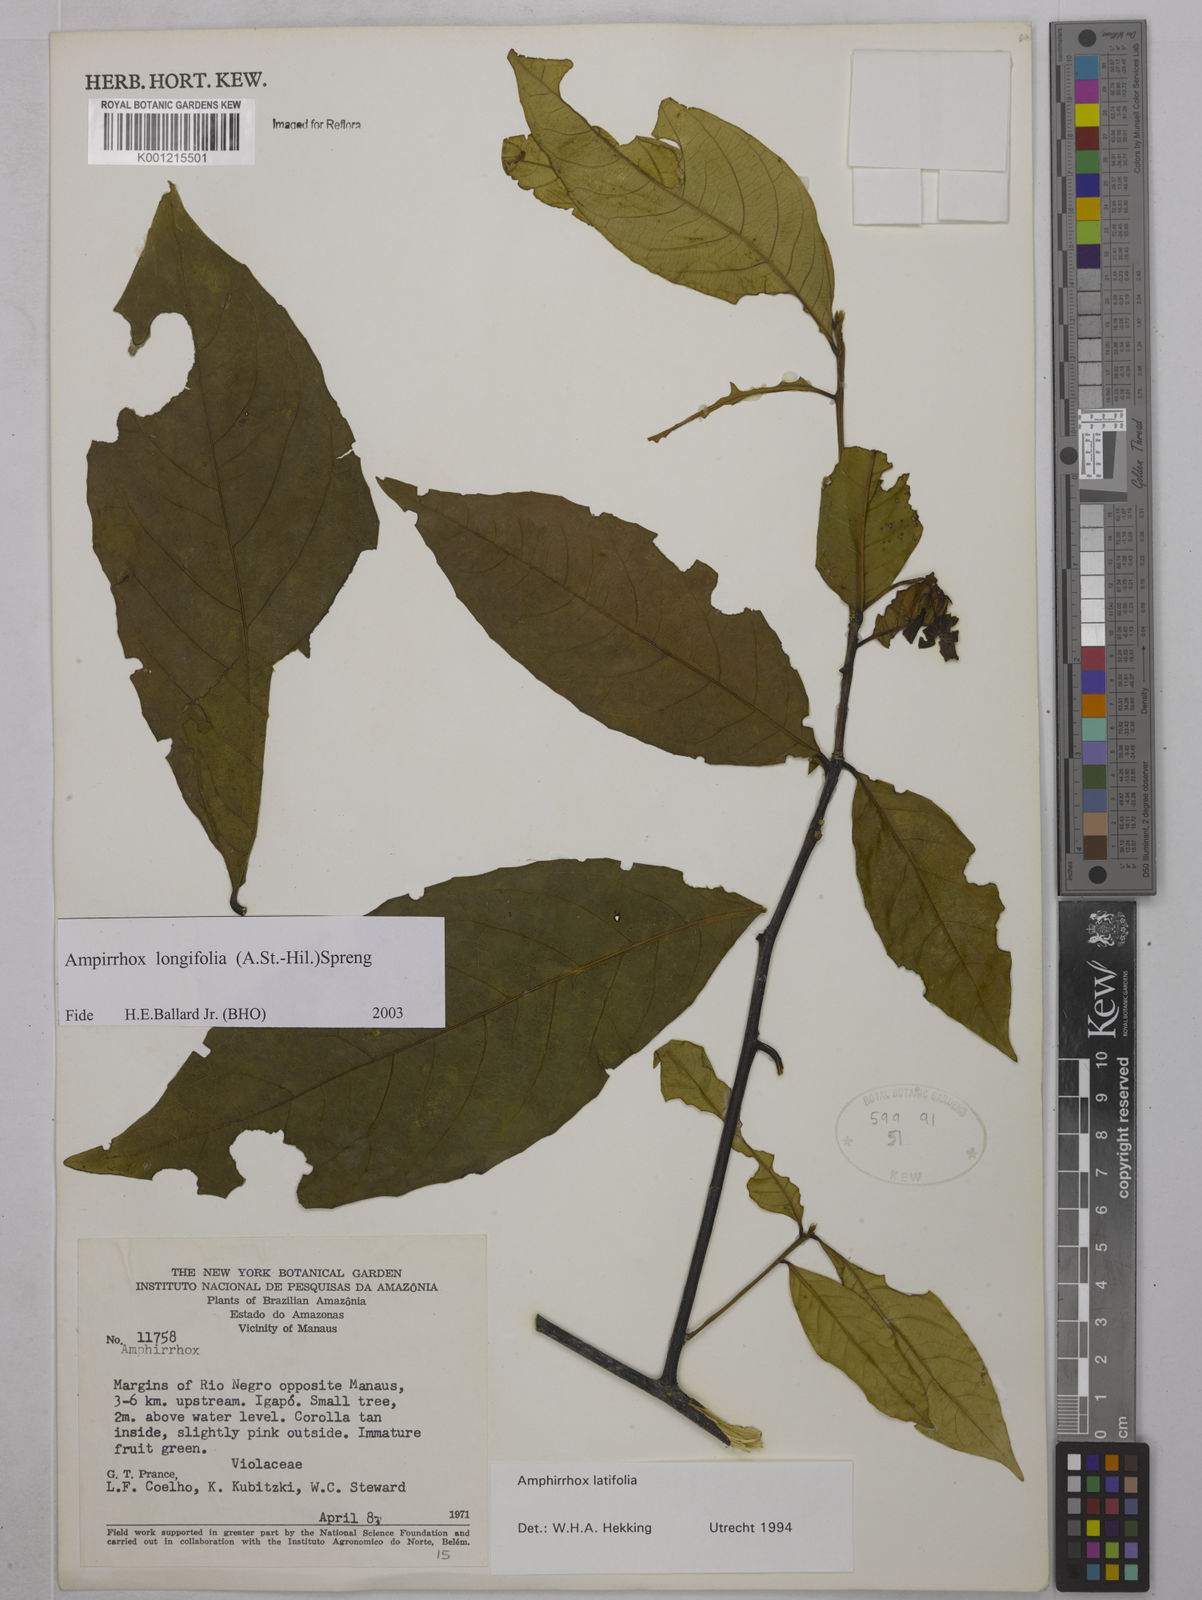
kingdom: Plantae
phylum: Tracheophyta
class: Magnoliopsida
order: Malpighiales
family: Violaceae
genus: Amphirrhox
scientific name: Amphirrhox longifolia
